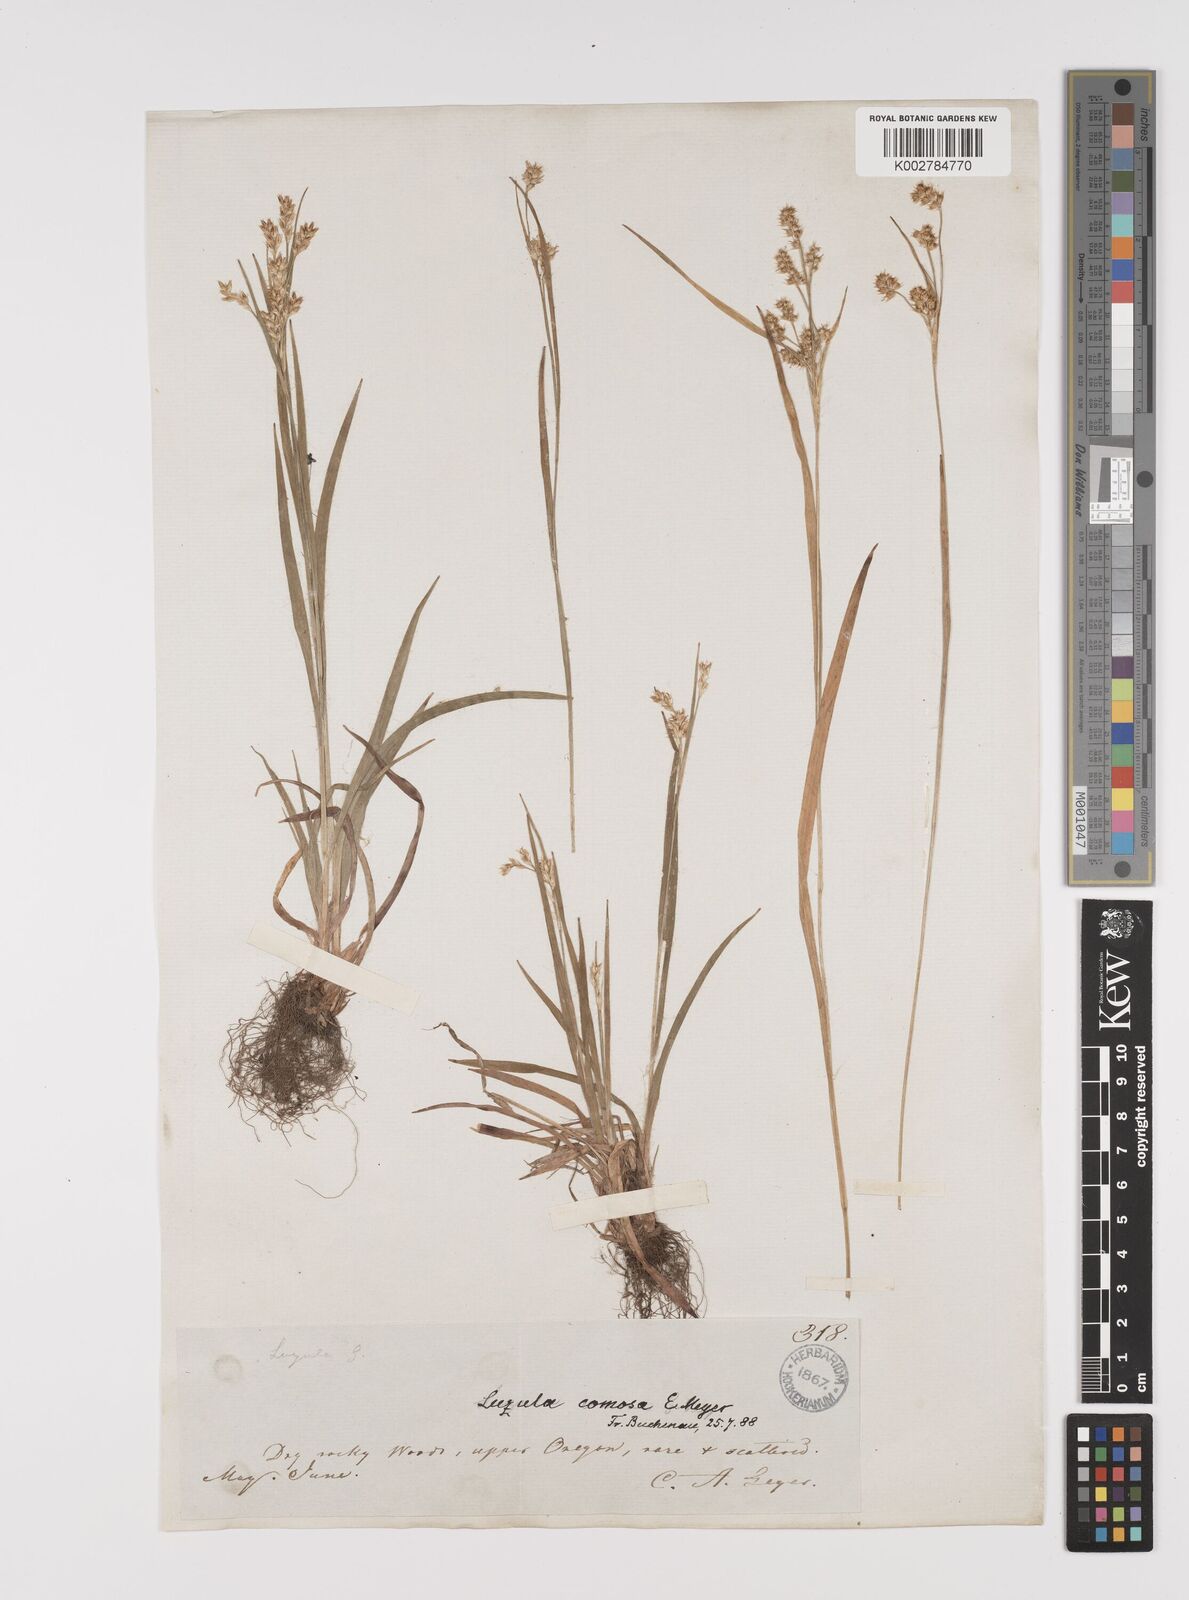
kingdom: Plantae
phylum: Tracheophyta
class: Liliopsida
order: Poales
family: Juncaceae
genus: Luzula
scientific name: Luzula comosa
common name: Pacific woodrush
